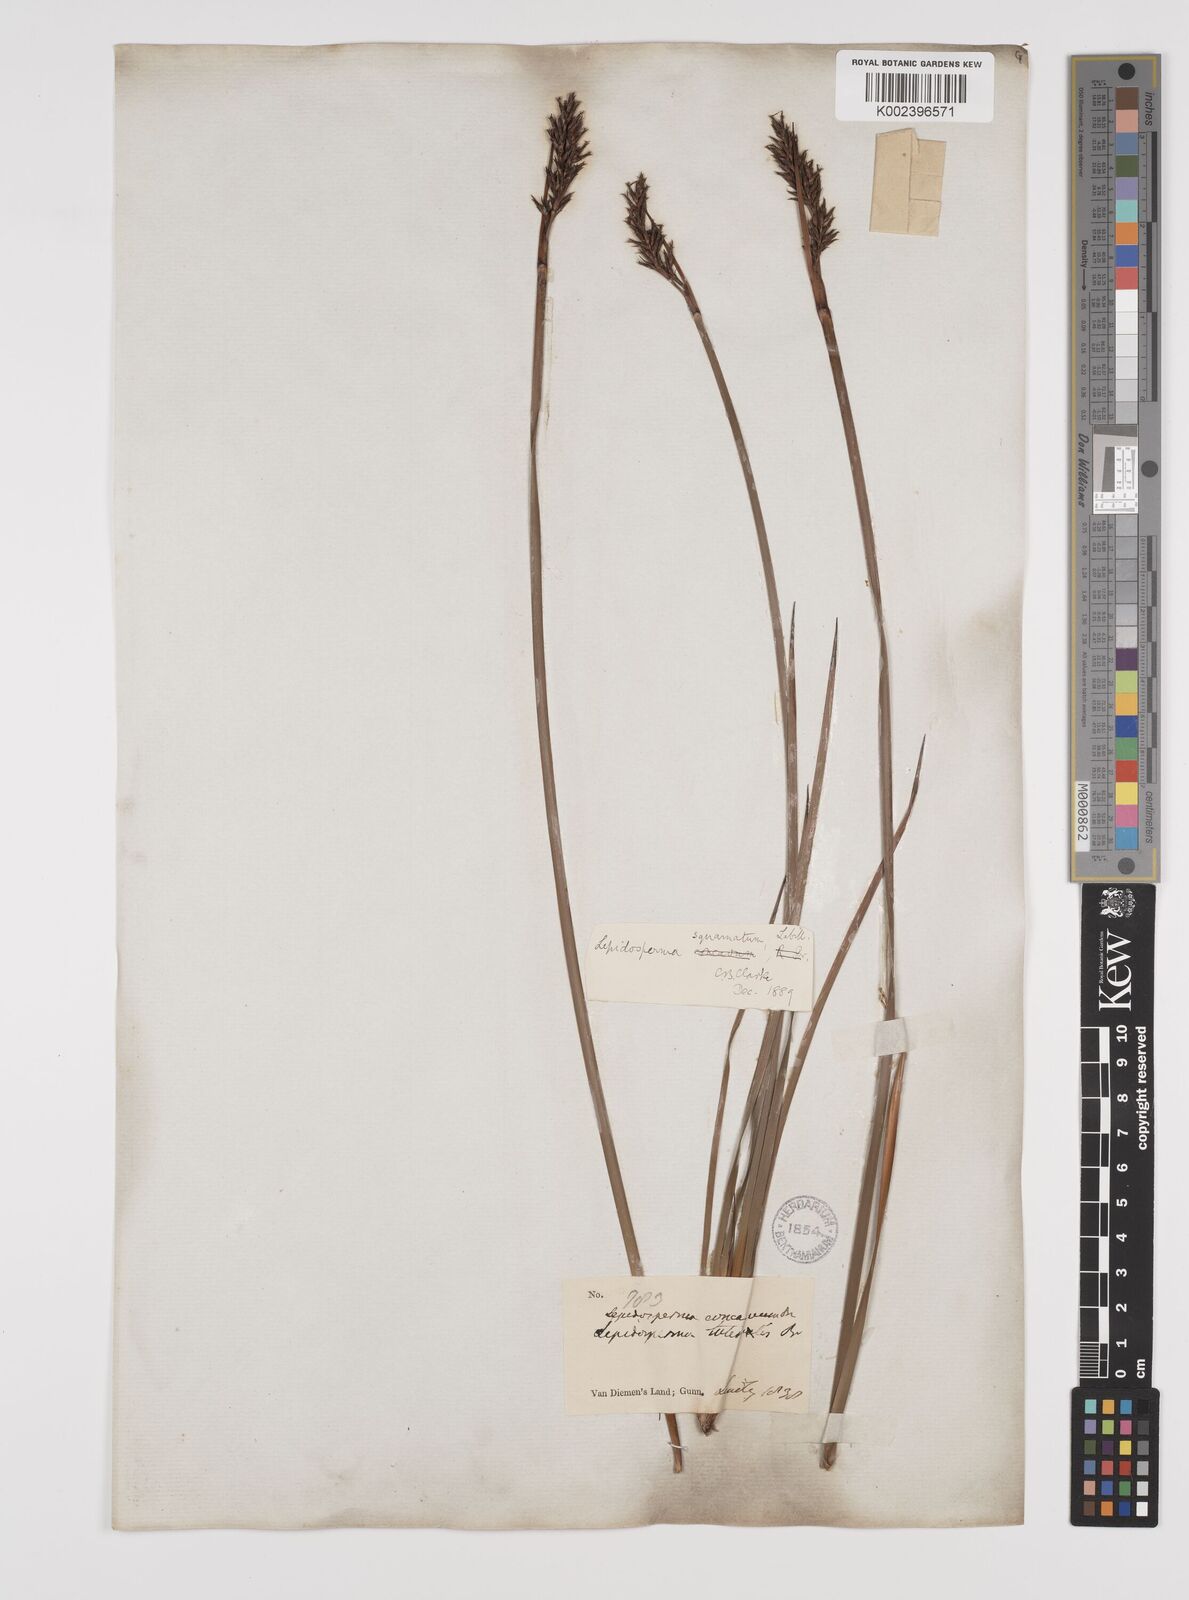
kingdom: Plantae
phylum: Tracheophyta
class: Liliopsida
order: Poales
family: Cyperaceae
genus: Lepidosperma
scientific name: Lepidosperma concavum
